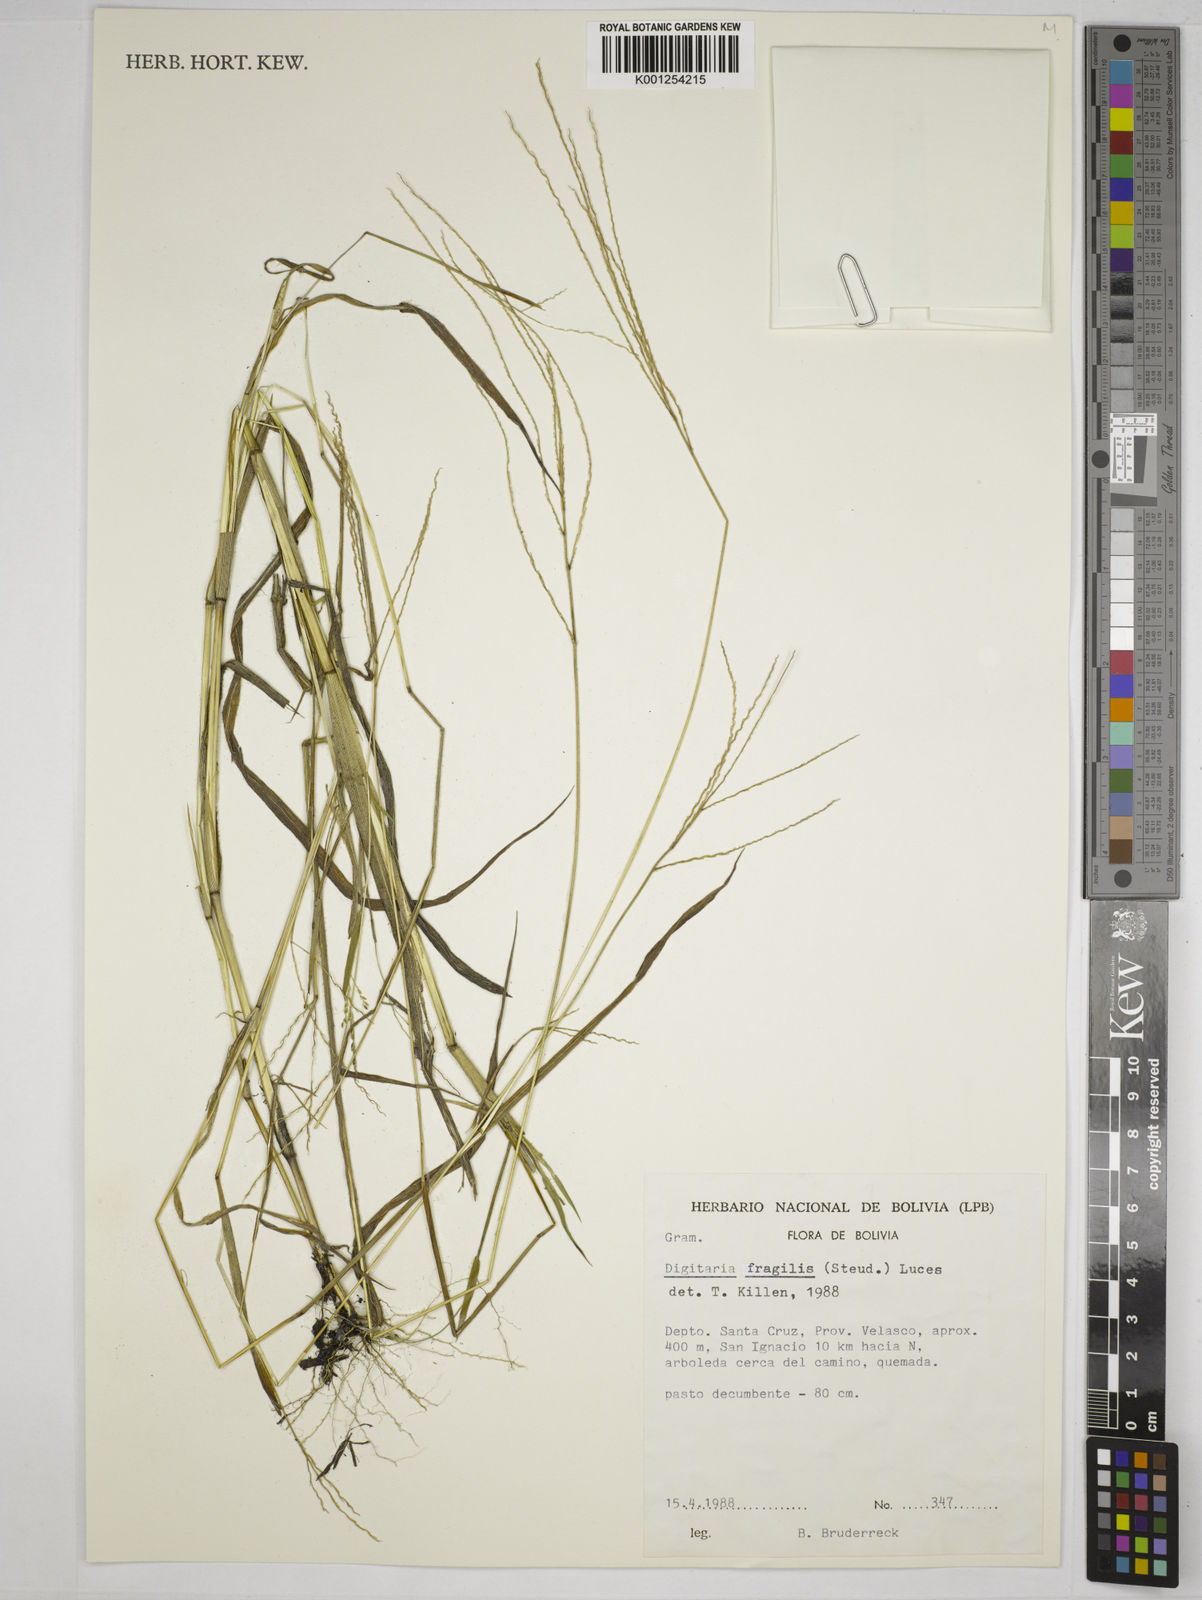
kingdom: Plantae
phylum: Tracheophyta
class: Liliopsida
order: Poales
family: Poaceae
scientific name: Poaceae
